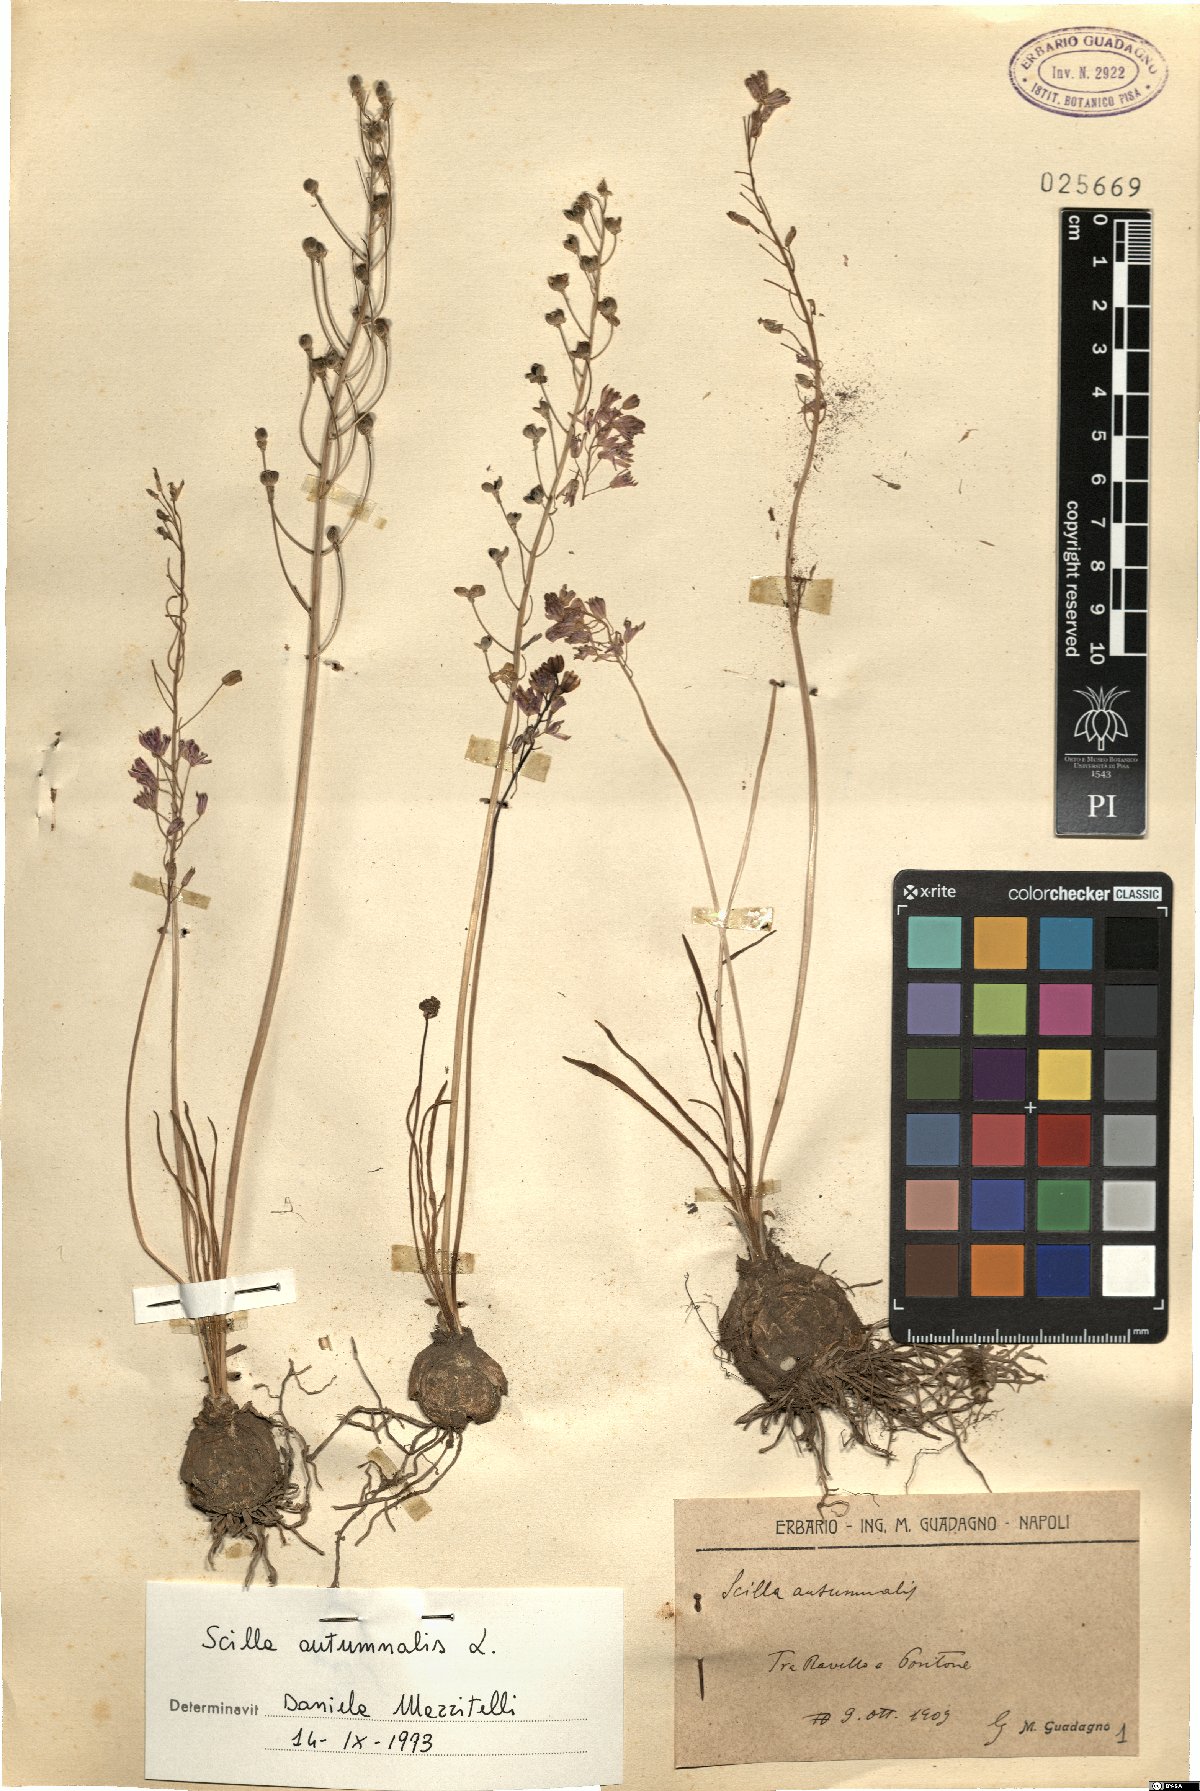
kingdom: Plantae
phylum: Tracheophyta
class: Liliopsida
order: Asparagales
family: Asparagaceae
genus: Prospero
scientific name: Prospero autumnale
